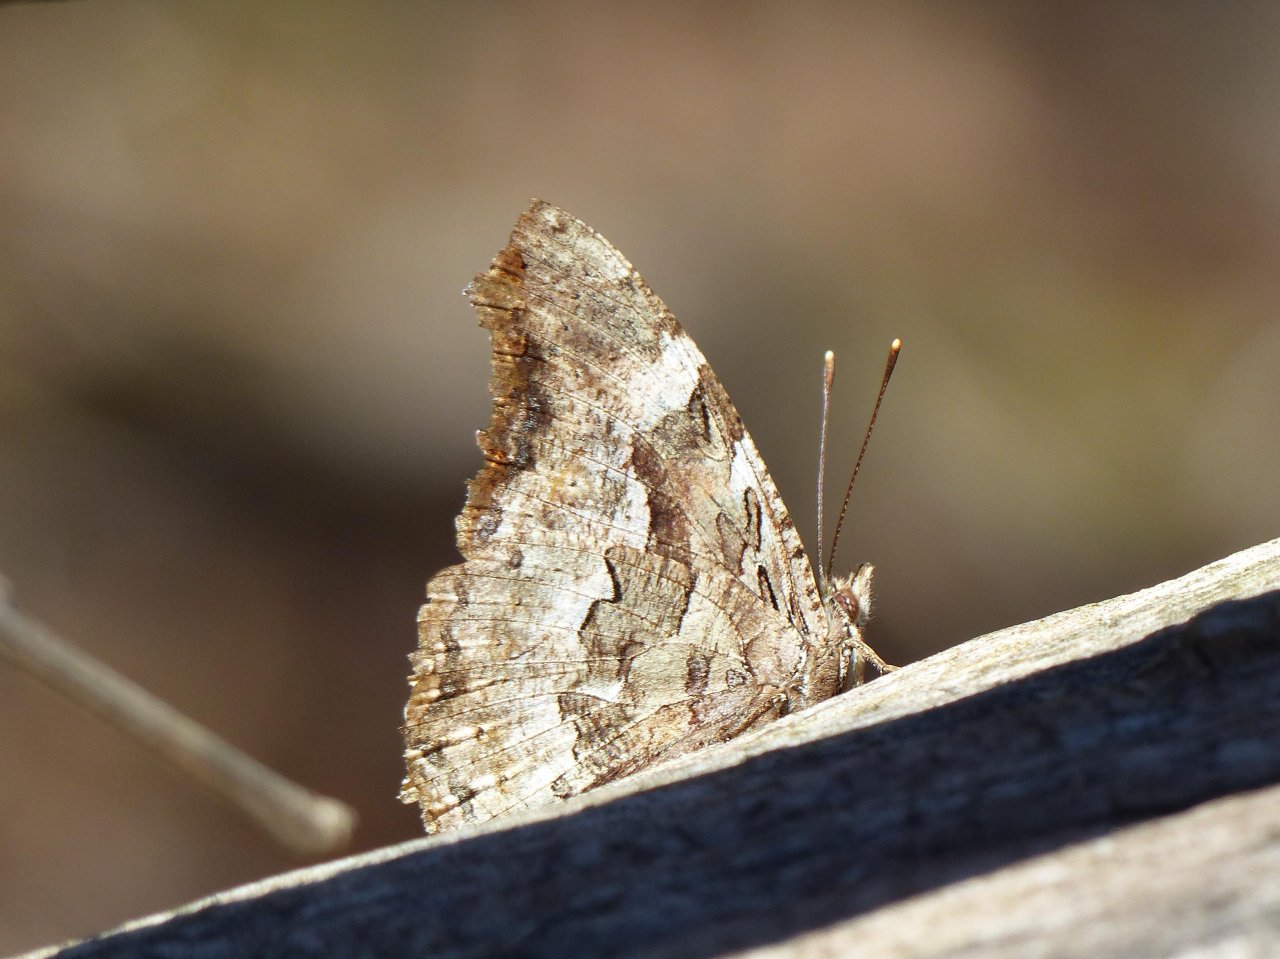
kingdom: Animalia
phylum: Arthropoda
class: Insecta
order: Lepidoptera
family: Nymphalidae
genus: Polygonia
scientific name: Polygonia vaualbum
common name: Compton Tortoiseshell
